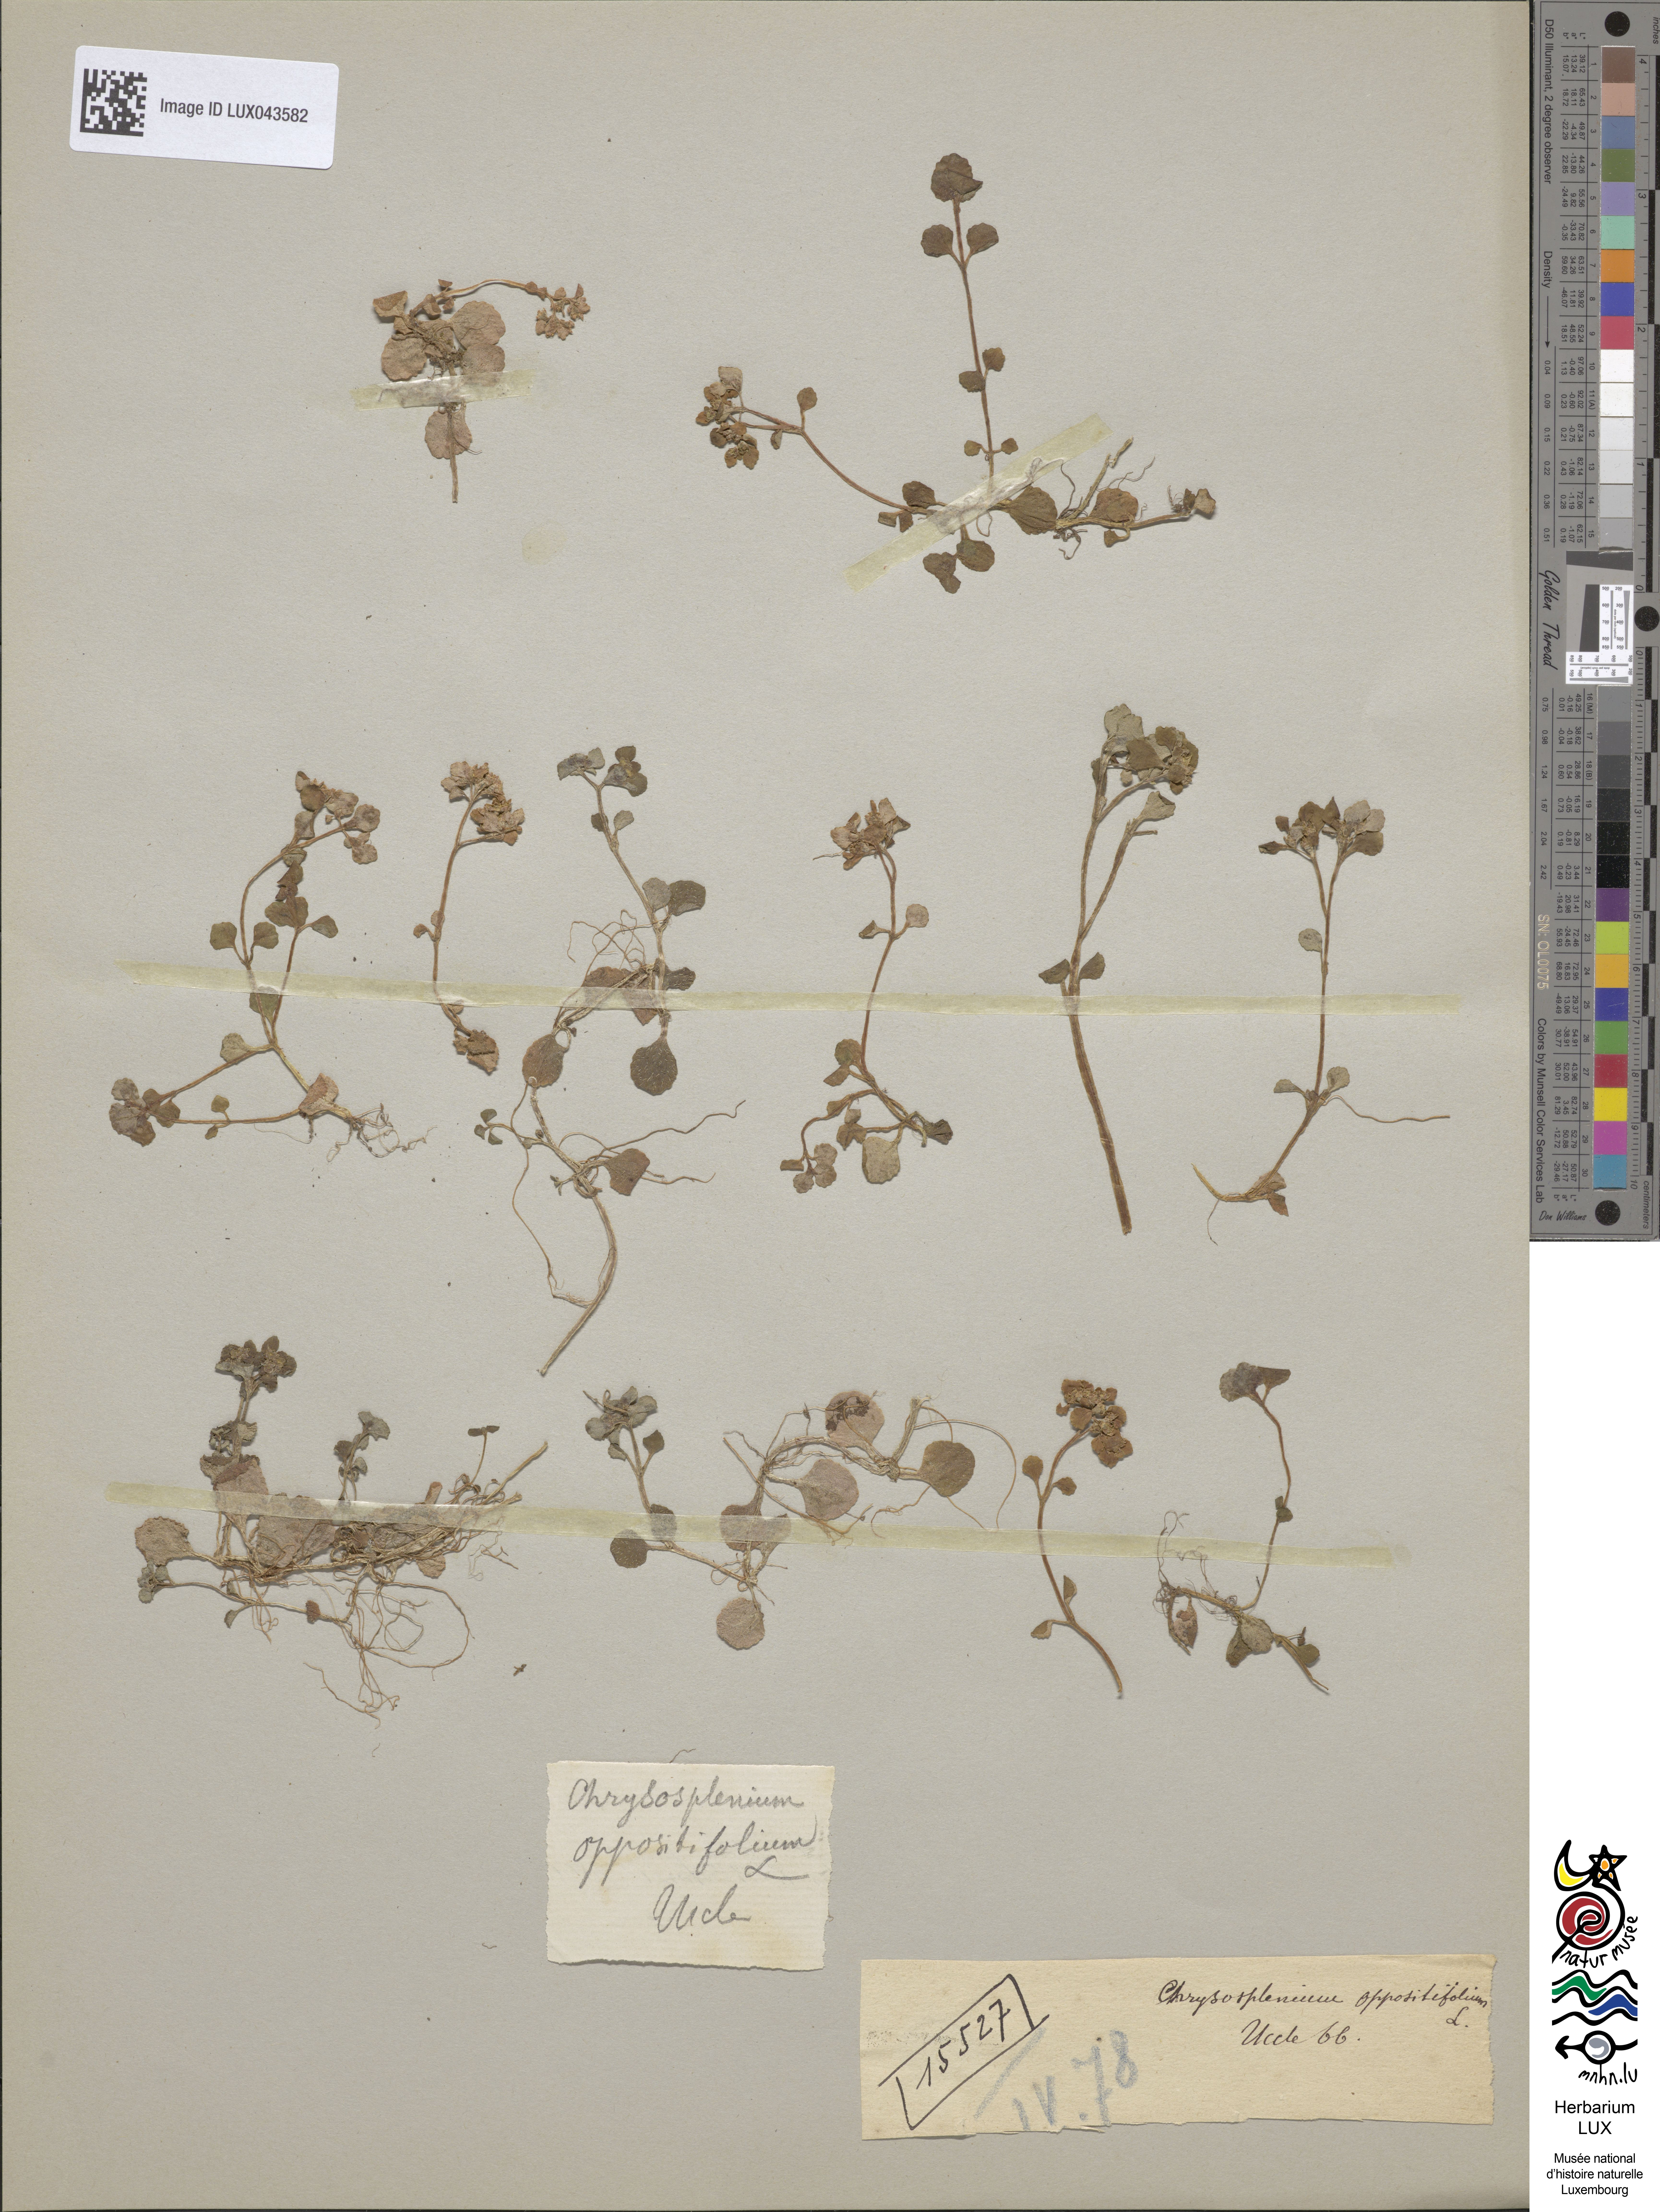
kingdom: Plantae
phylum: Tracheophyta
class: Magnoliopsida
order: Saxifragales
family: Saxifragaceae
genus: Chrysosplenium
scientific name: Chrysosplenium oppositifolium
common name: Opposite-leaved golden-saxifrage
